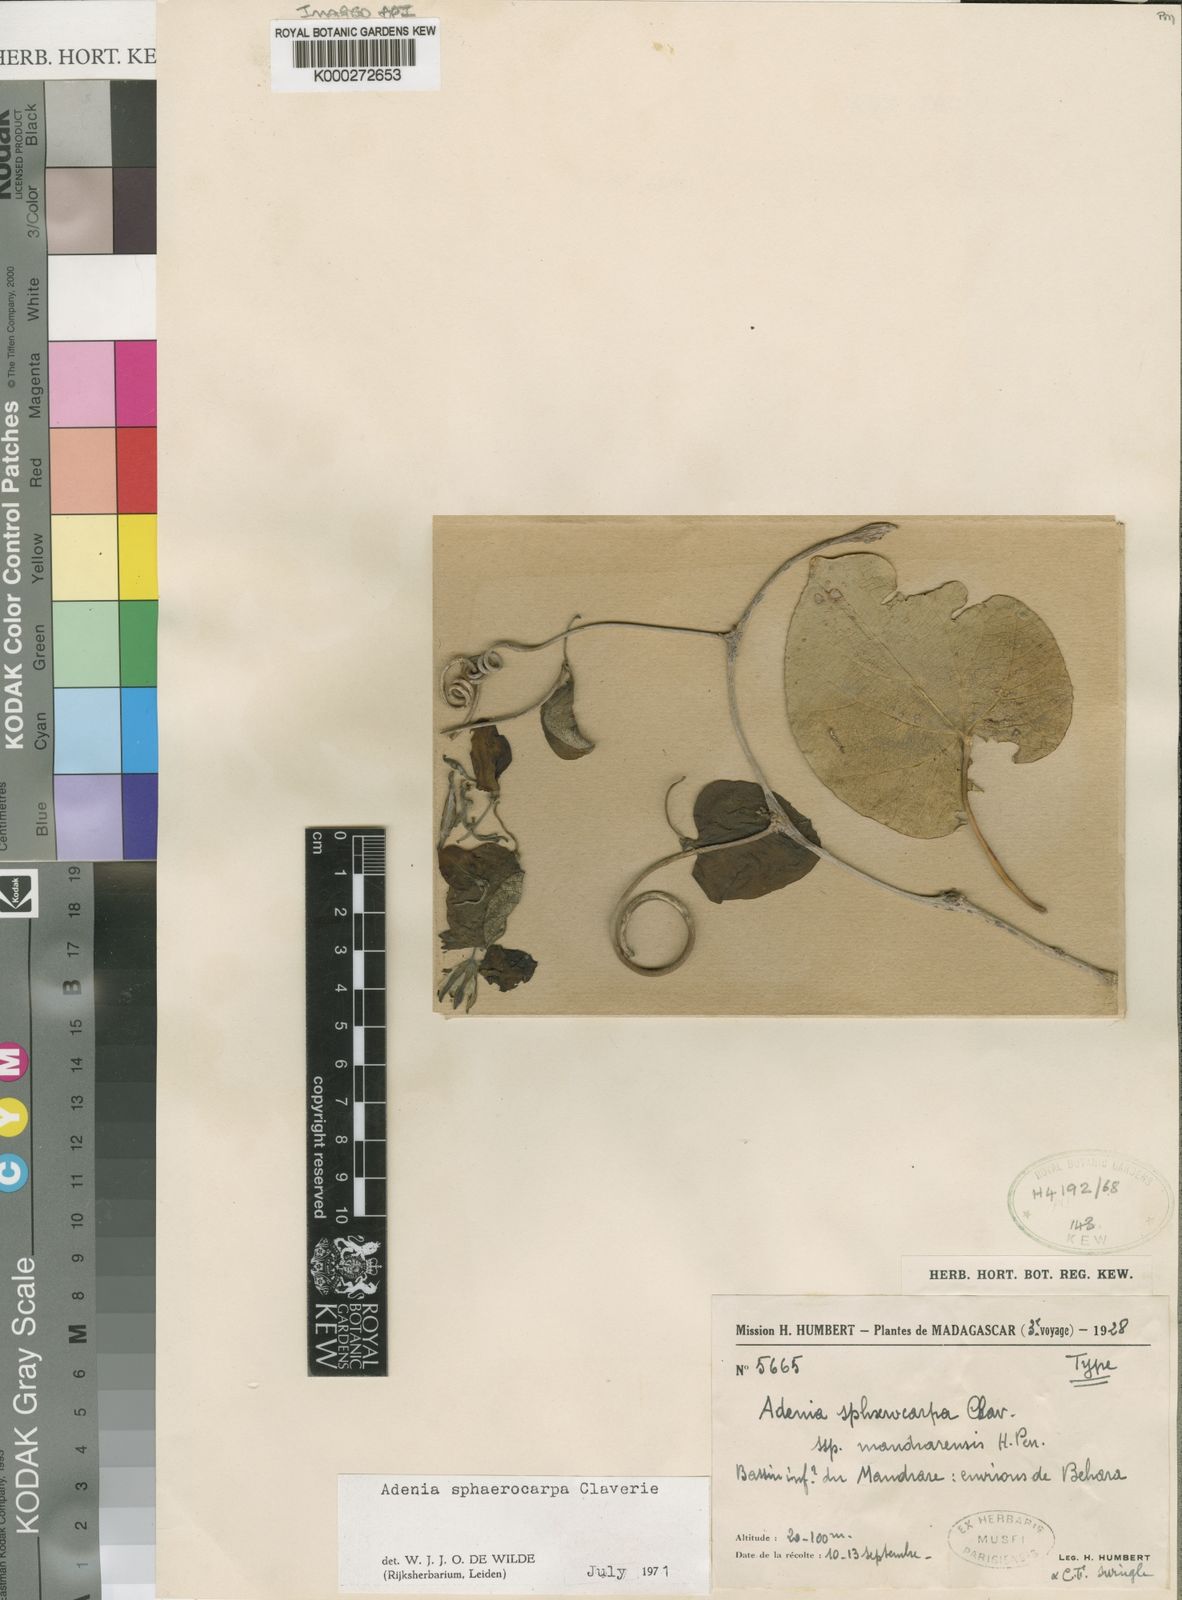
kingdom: Plantae
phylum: Tracheophyta
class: Magnoliopsida
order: Malpighiales
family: Passifloraceae
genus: Adenia
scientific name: Adenia sphaerocarpa
